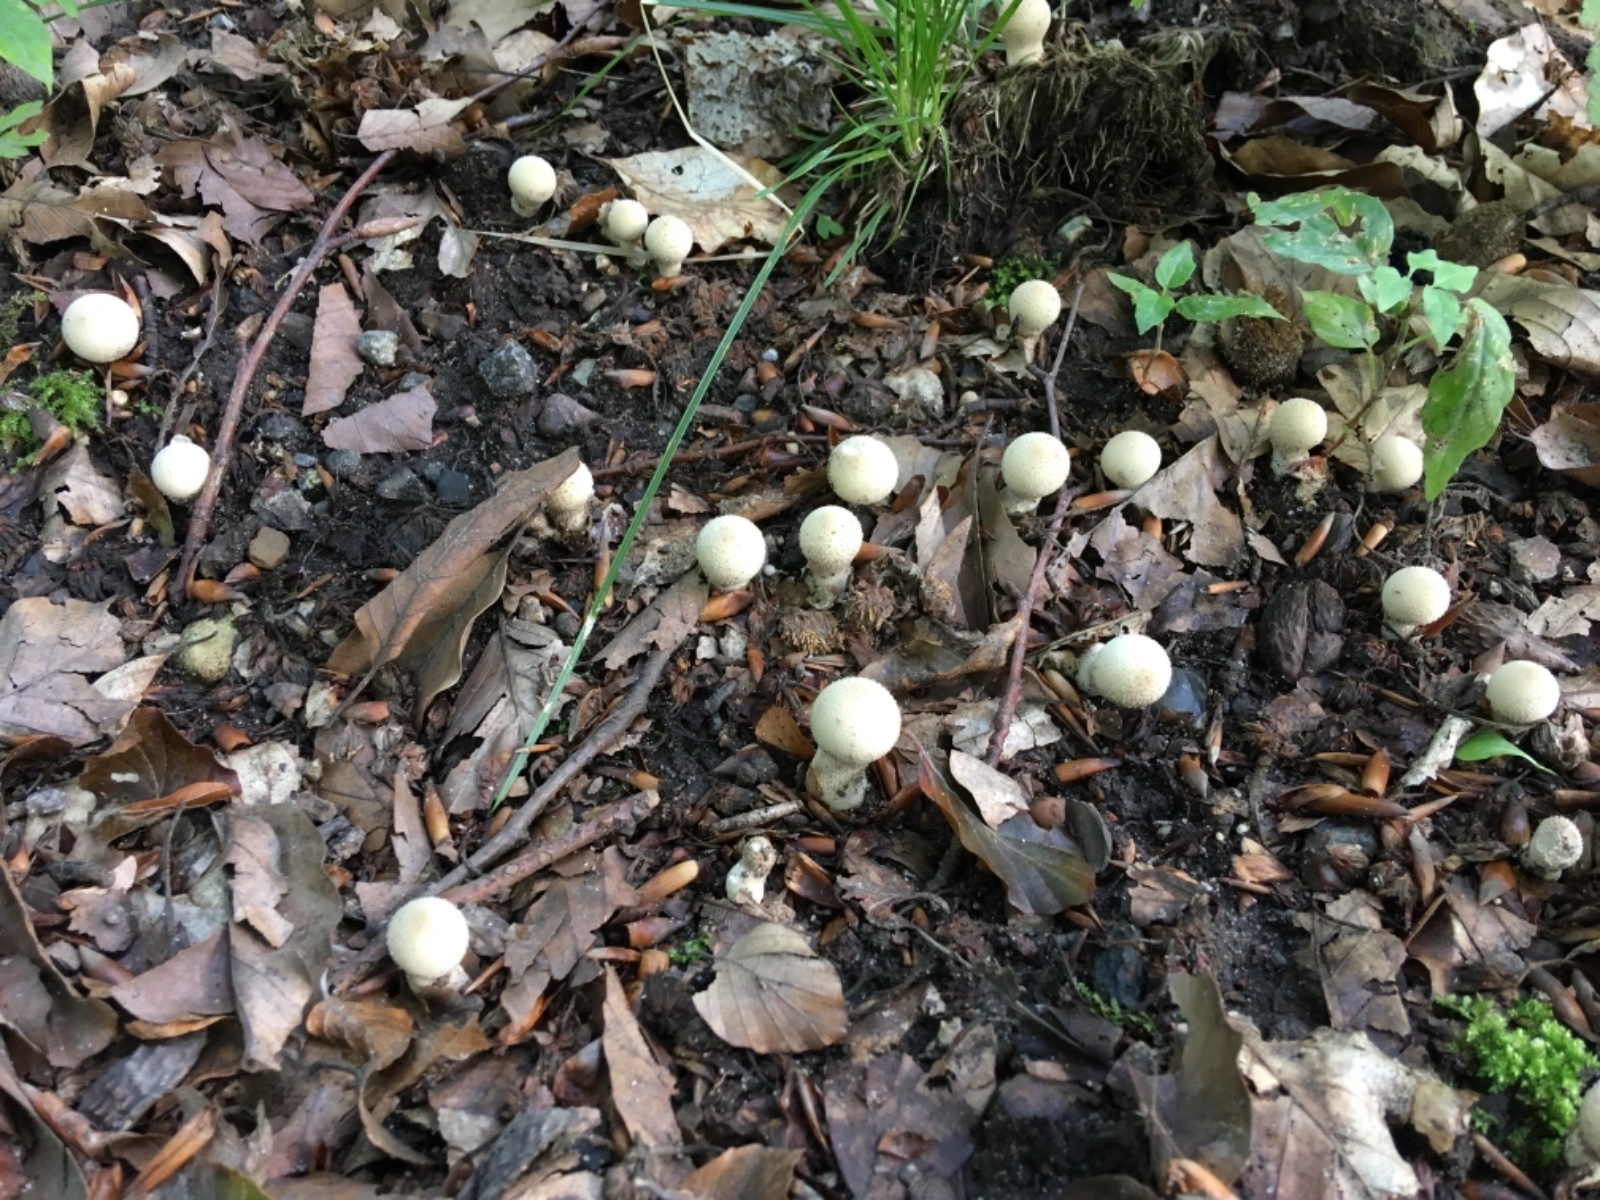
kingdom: Fungi
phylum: Basidiomycota
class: Agaricomycetes
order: Agaricales
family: Lycoperdaceae
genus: Lycoperdon
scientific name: Lycoperdon perlatum
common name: krystal-støvbold
